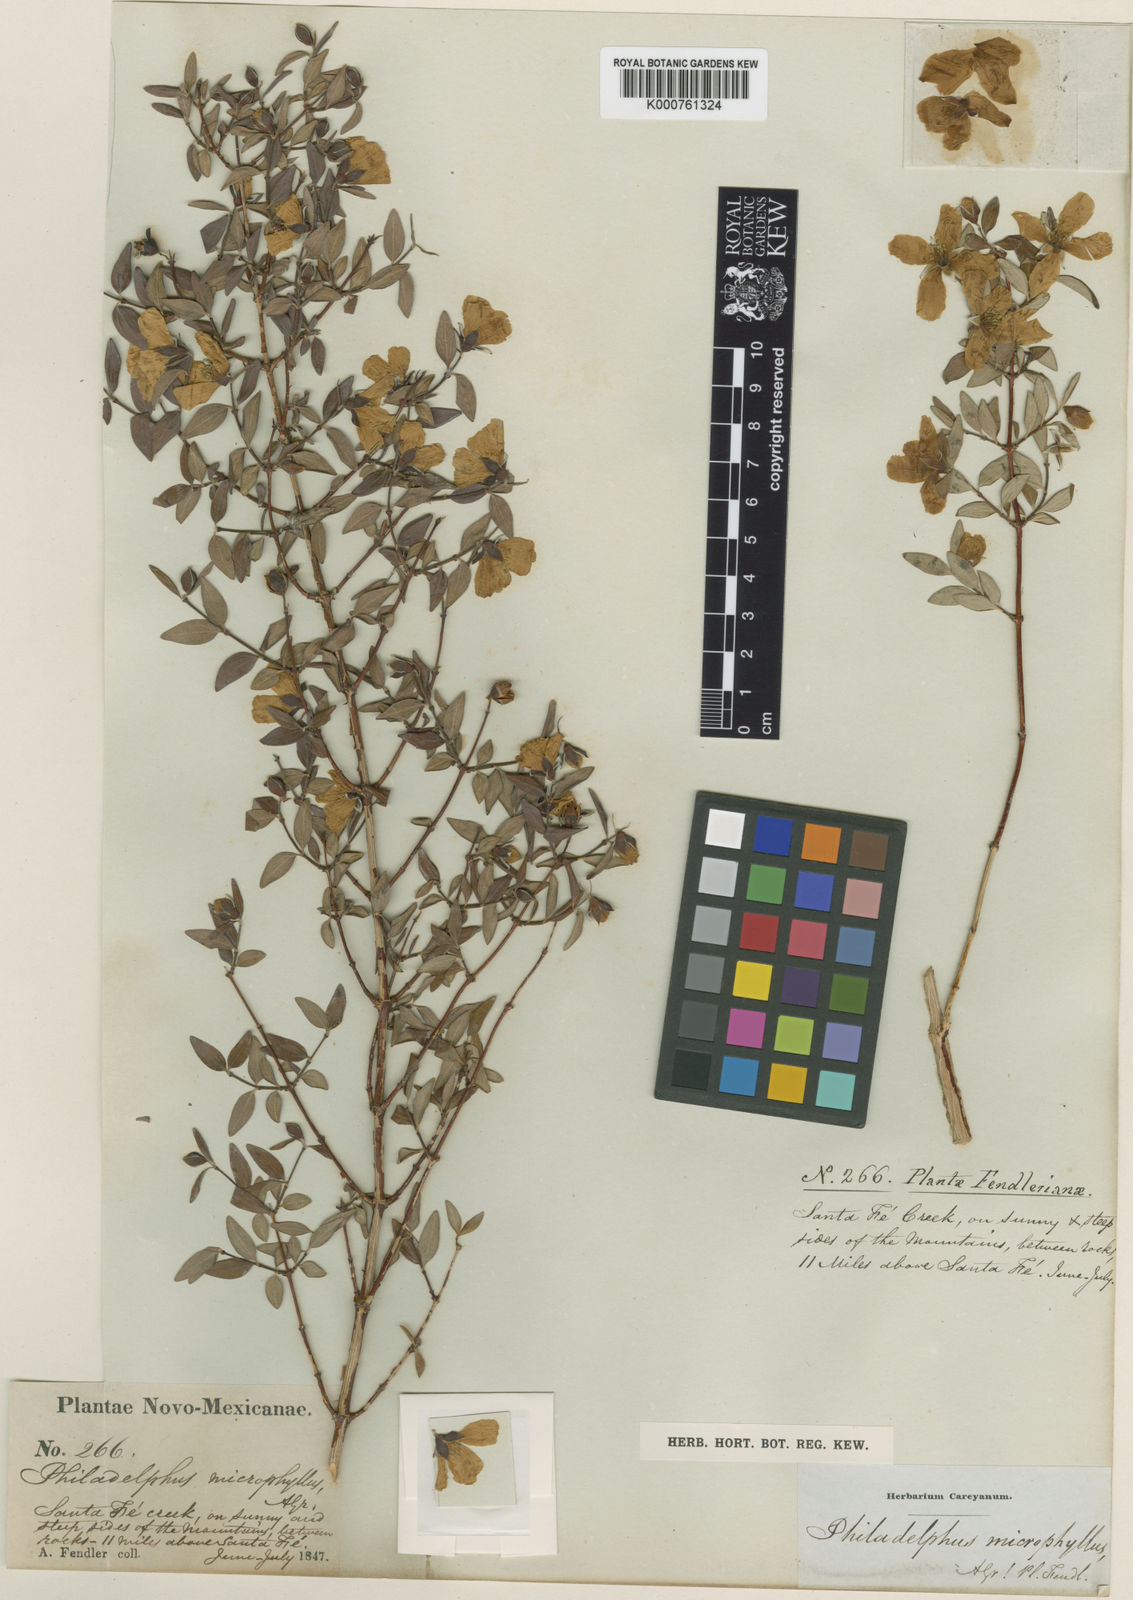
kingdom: Plantae
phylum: Tracheophyta
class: Magnoliopsida
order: Cornales
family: Hydrangeaceae
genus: Philadelphus
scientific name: Philadelphus microphyllus
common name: Desert mock orange
